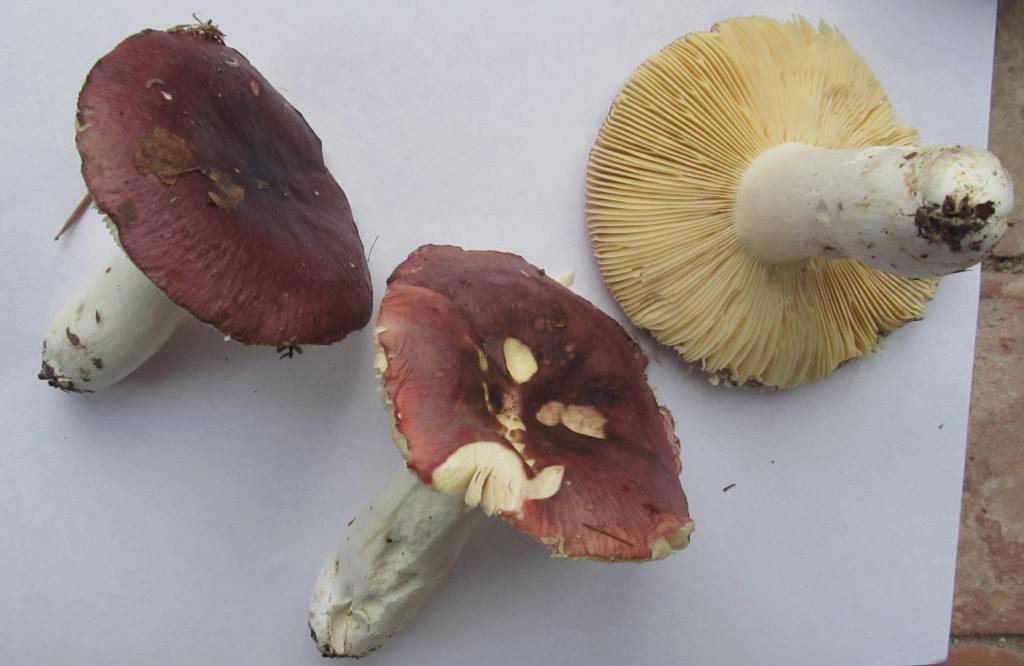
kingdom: Fungi
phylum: Basidiomycota
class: Agaricomycetes
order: Russulales
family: Russulaceae
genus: Russula
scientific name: Russula romellii
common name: romells skørhat
